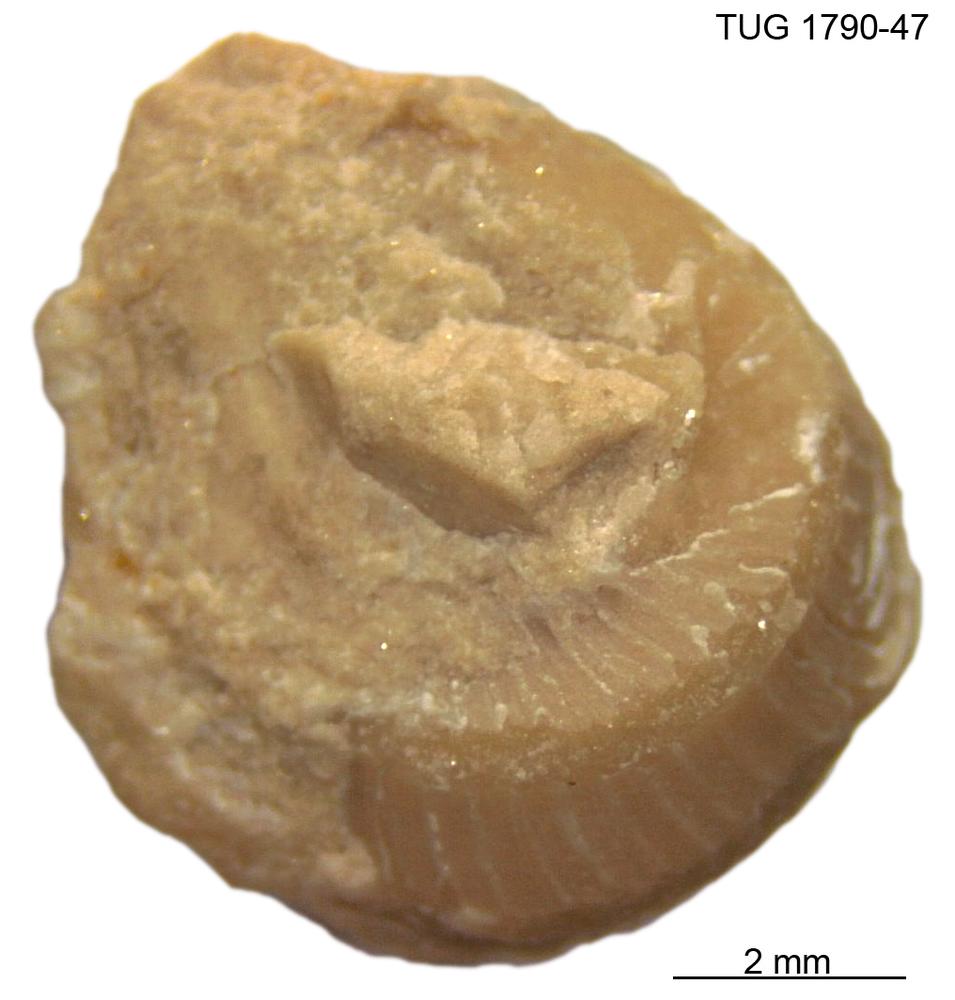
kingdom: Animalia
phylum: Mollusca
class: Gastropoda
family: Trochonematidae
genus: Trochonema
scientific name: Trochonema panderi
